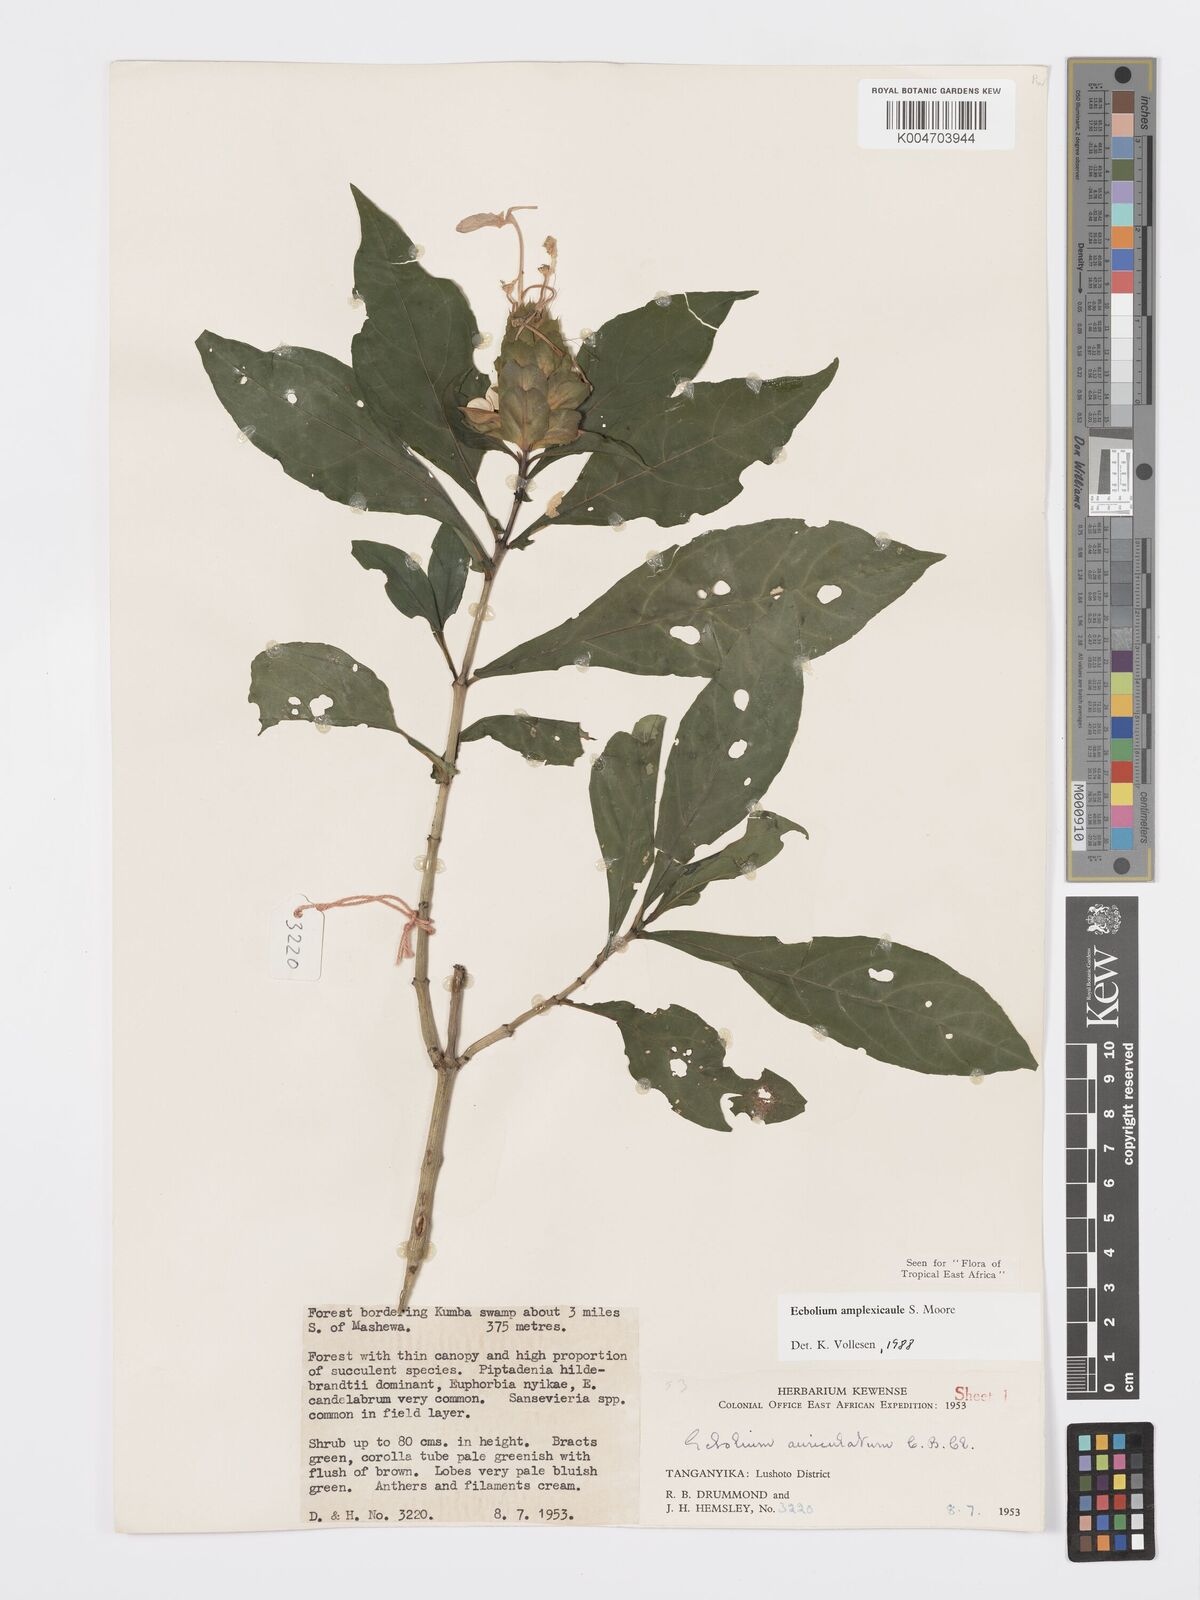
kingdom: Plantae
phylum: Tracheophyta
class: Magnoliopsida
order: Lamiales
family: Acanthaceae
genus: Ecbolium
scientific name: Ecbolium amplexicaule
